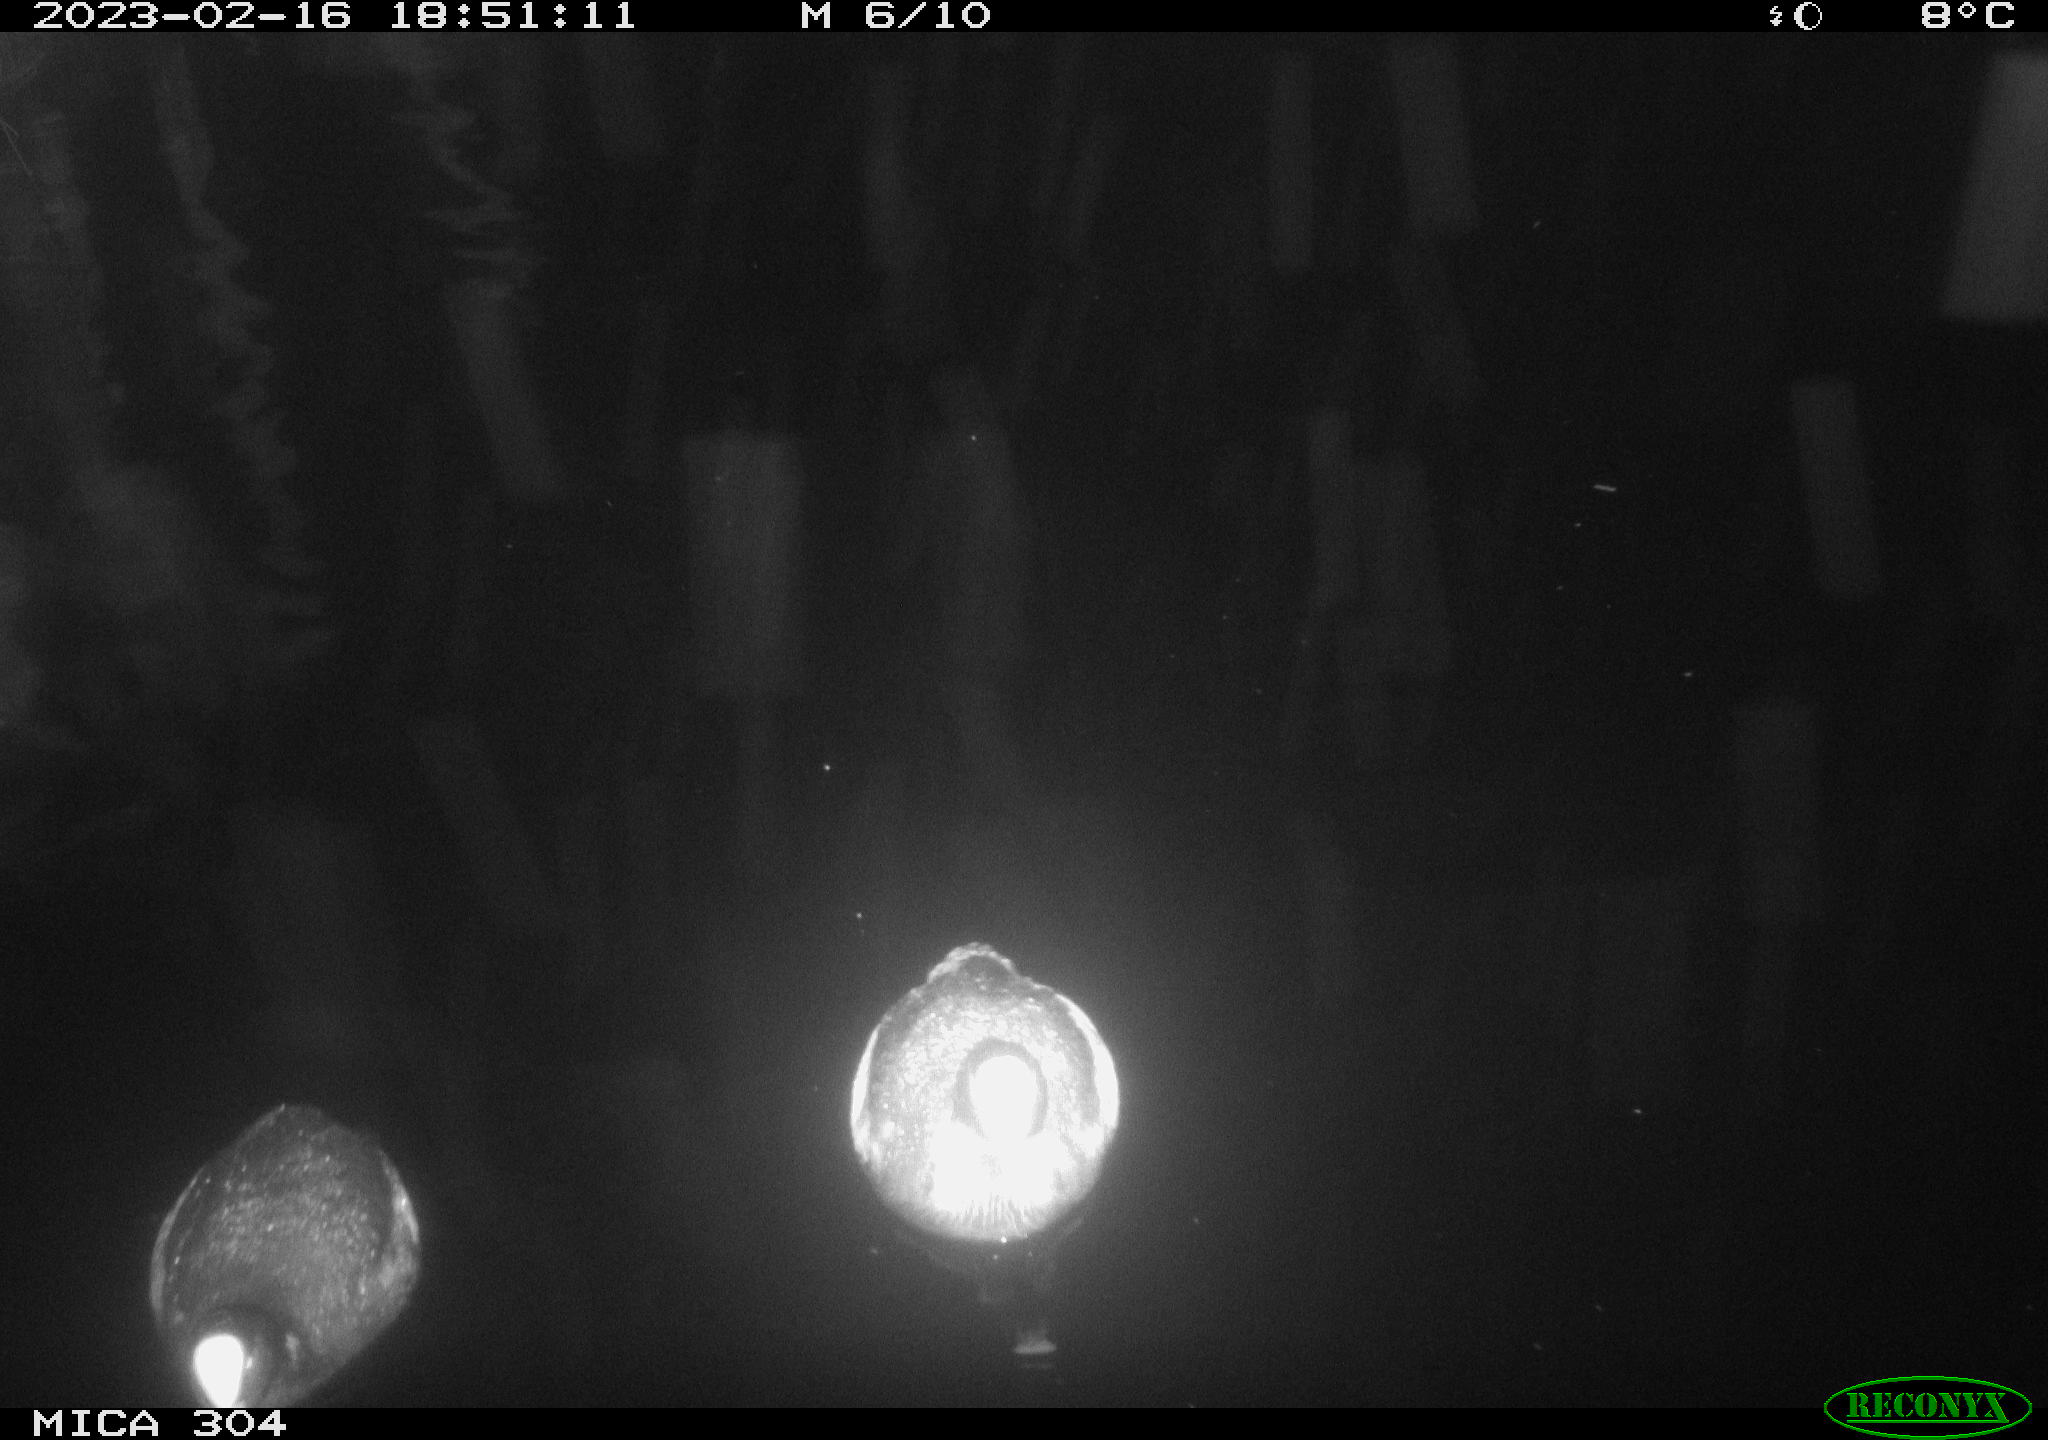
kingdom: Animalia
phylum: Chordata
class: Aves
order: Anseriformes
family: Anatidae
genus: Anas
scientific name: Anas
